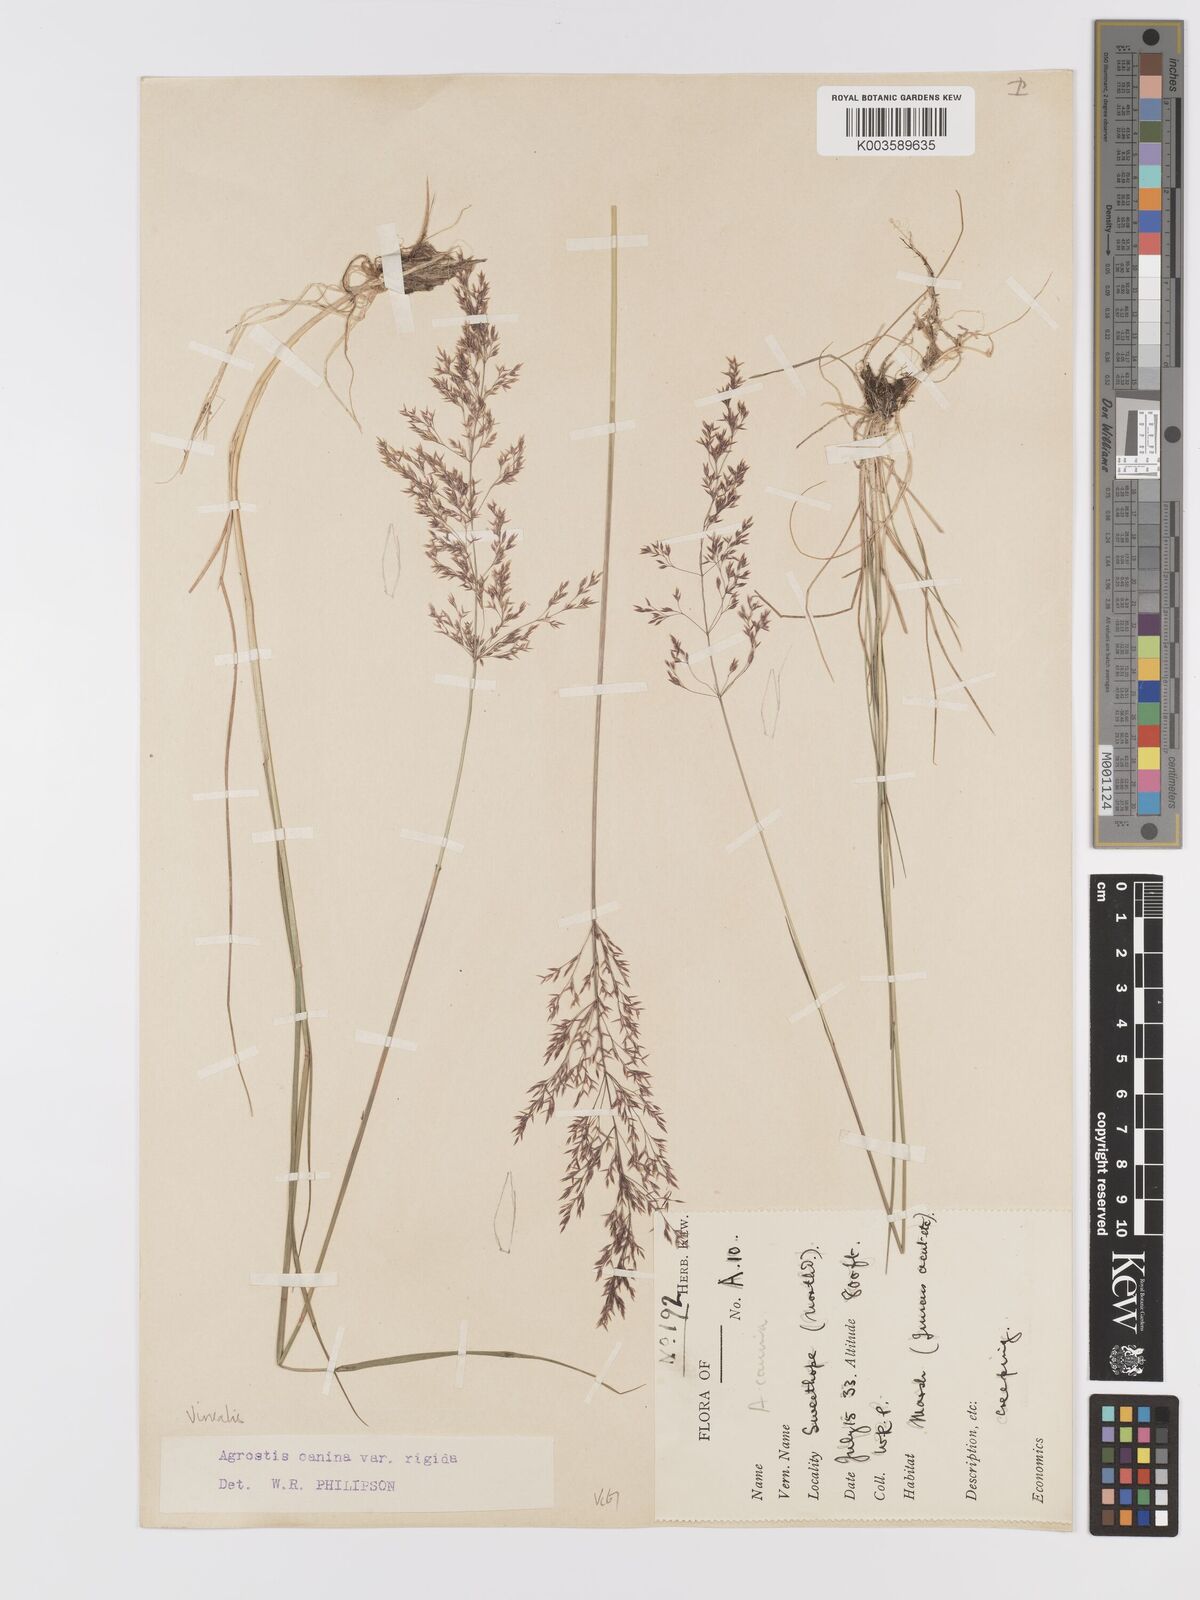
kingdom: Plantae
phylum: Tracheophyta
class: Liliopsida
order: Poales
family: Poaceae
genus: Agrostis
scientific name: Agrostis
